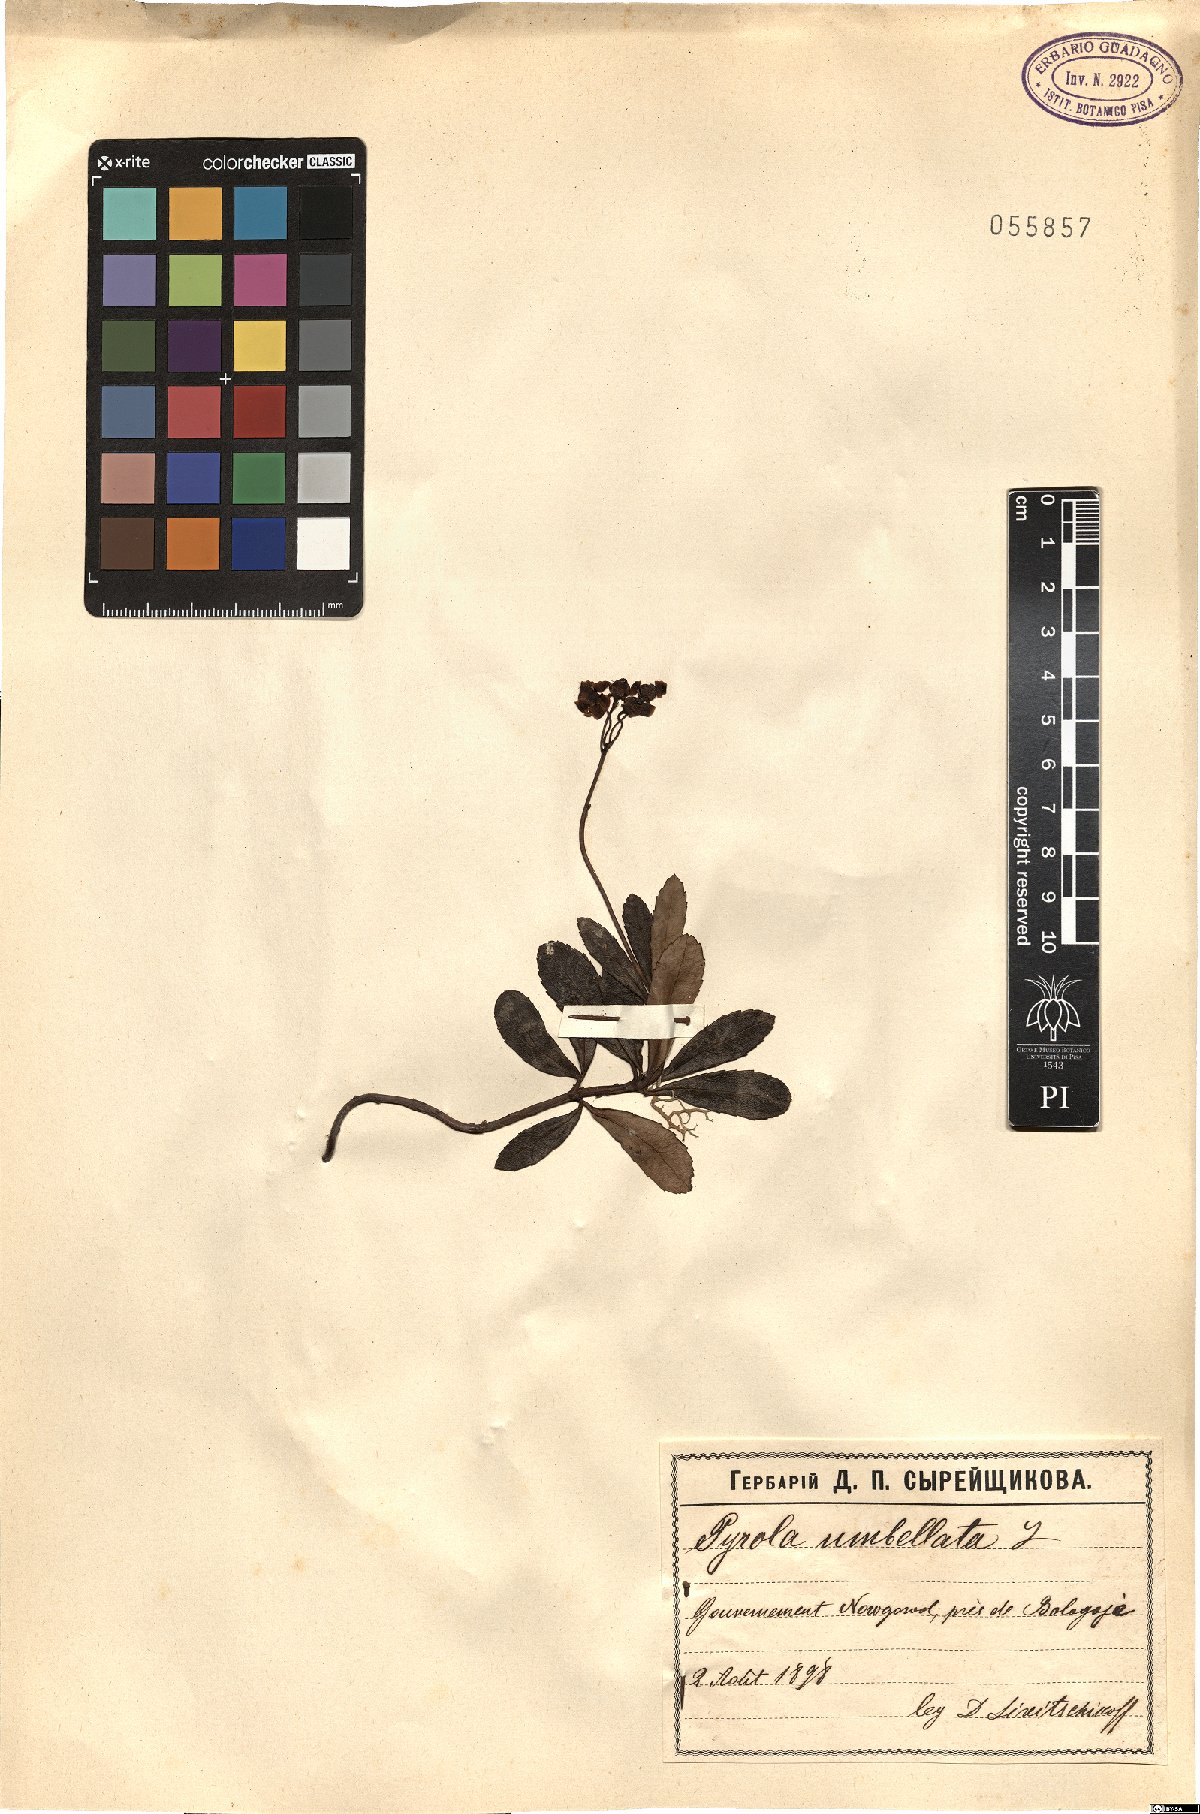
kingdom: Plantae
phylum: Tracheophyta
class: Magnoliopsida
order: Ericales
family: Ericaceae
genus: Chimaphila
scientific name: Chimaphila umbellata
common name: Pipsissewa
